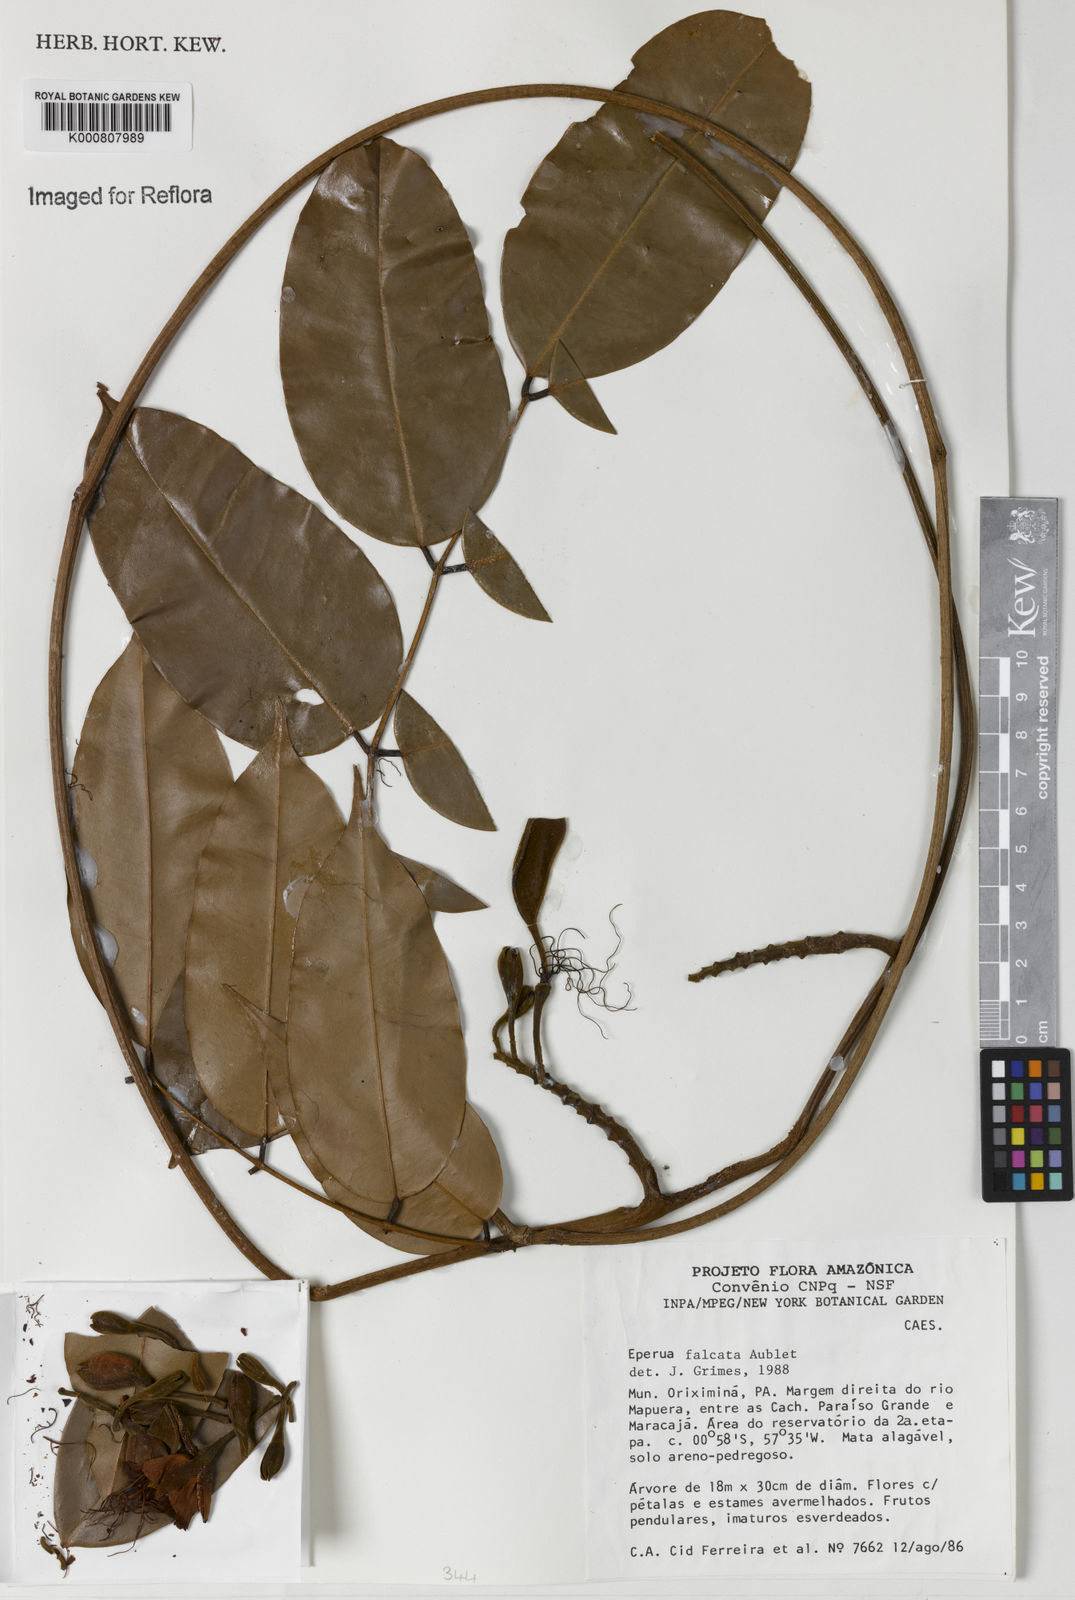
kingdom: Plantae
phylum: Tracheophyta
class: Magnoliopsida
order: Fabales
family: Fabaceae
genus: Eperua
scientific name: Eperua falcata
